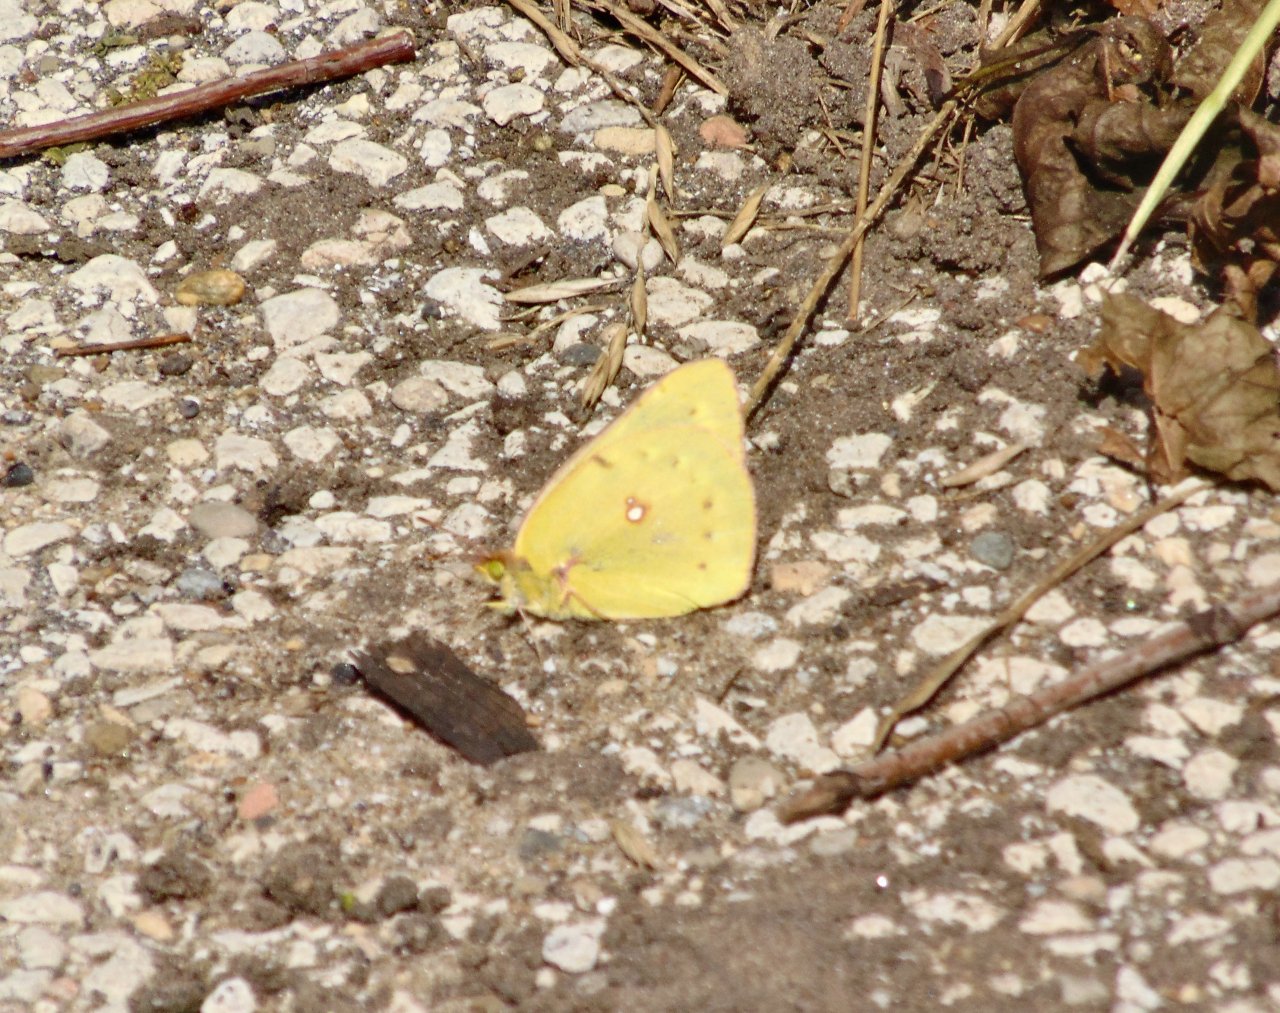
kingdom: Animalia
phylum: Arthropoda
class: Insecta
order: Lepidoptera
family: Pieridae
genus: Colias
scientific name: Colias philodice
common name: Clouded Sulphur
